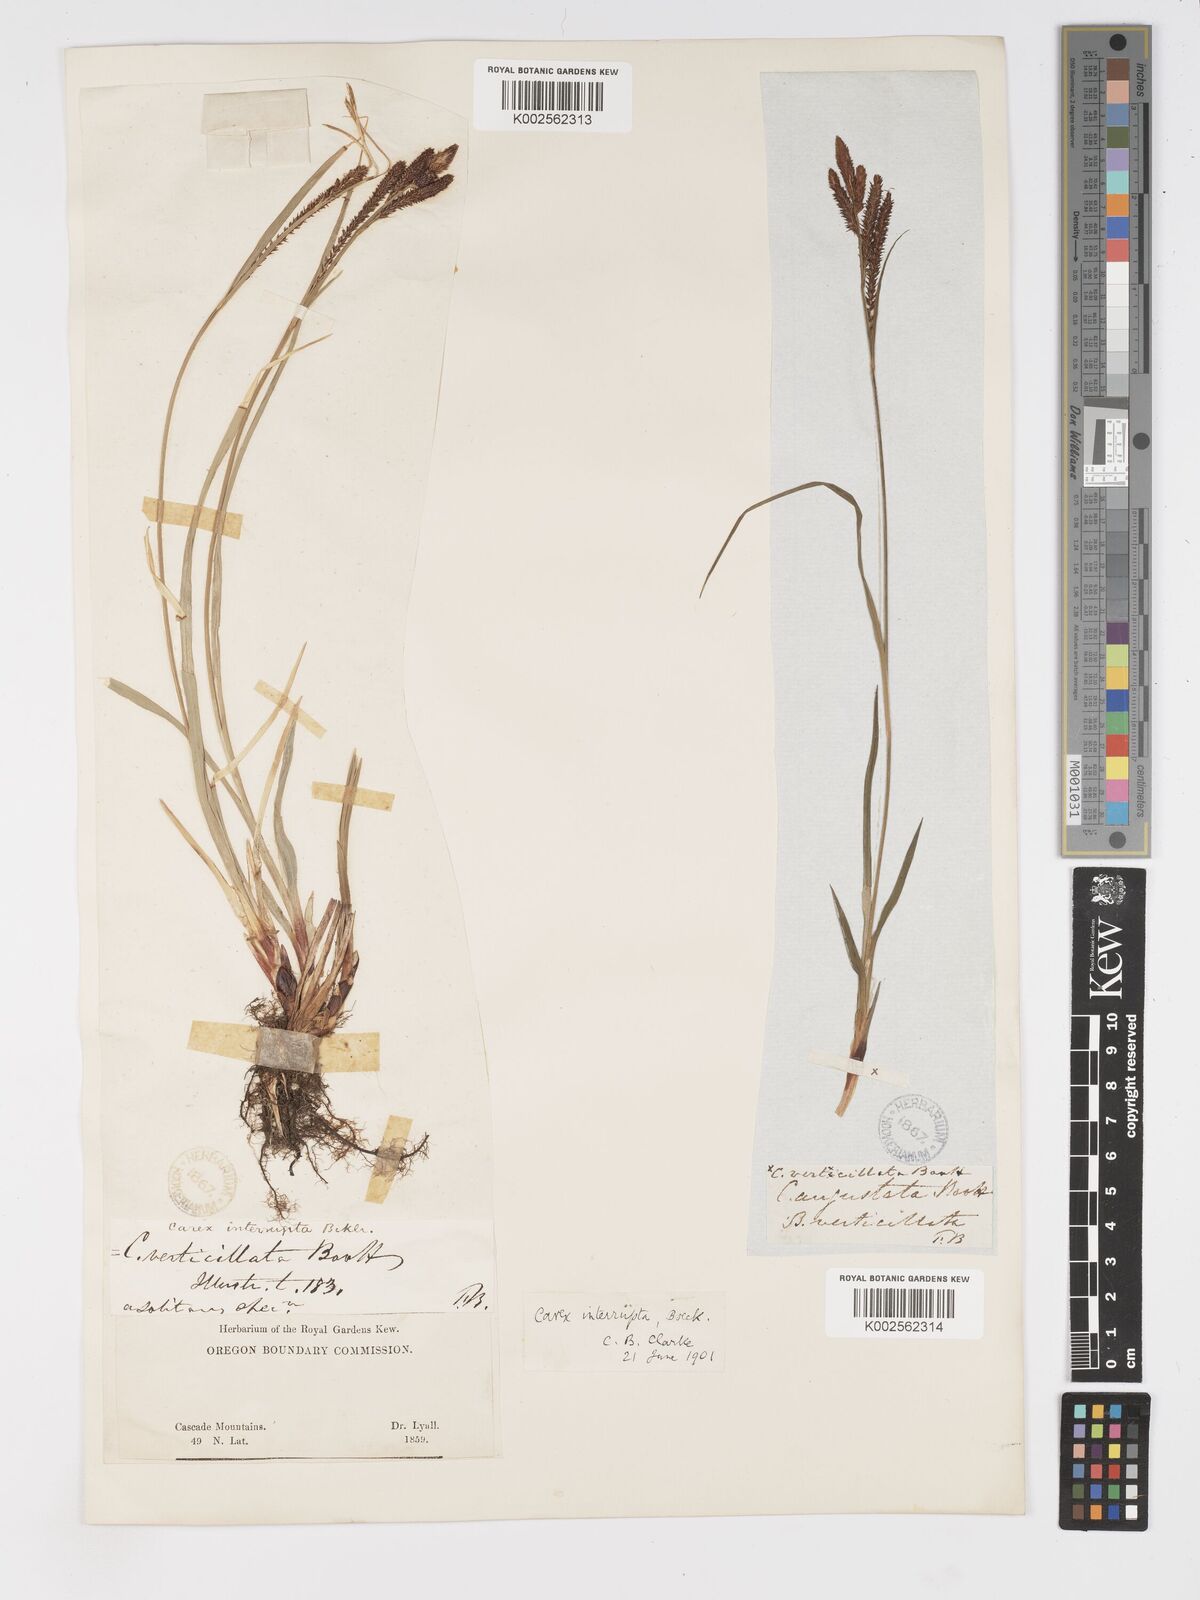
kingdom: Plantae
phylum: Tracheophyta
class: Liliopsida
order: Poales
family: Cyperaceae
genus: Carex
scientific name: Carex interrupta
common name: Green-fruited sedge
